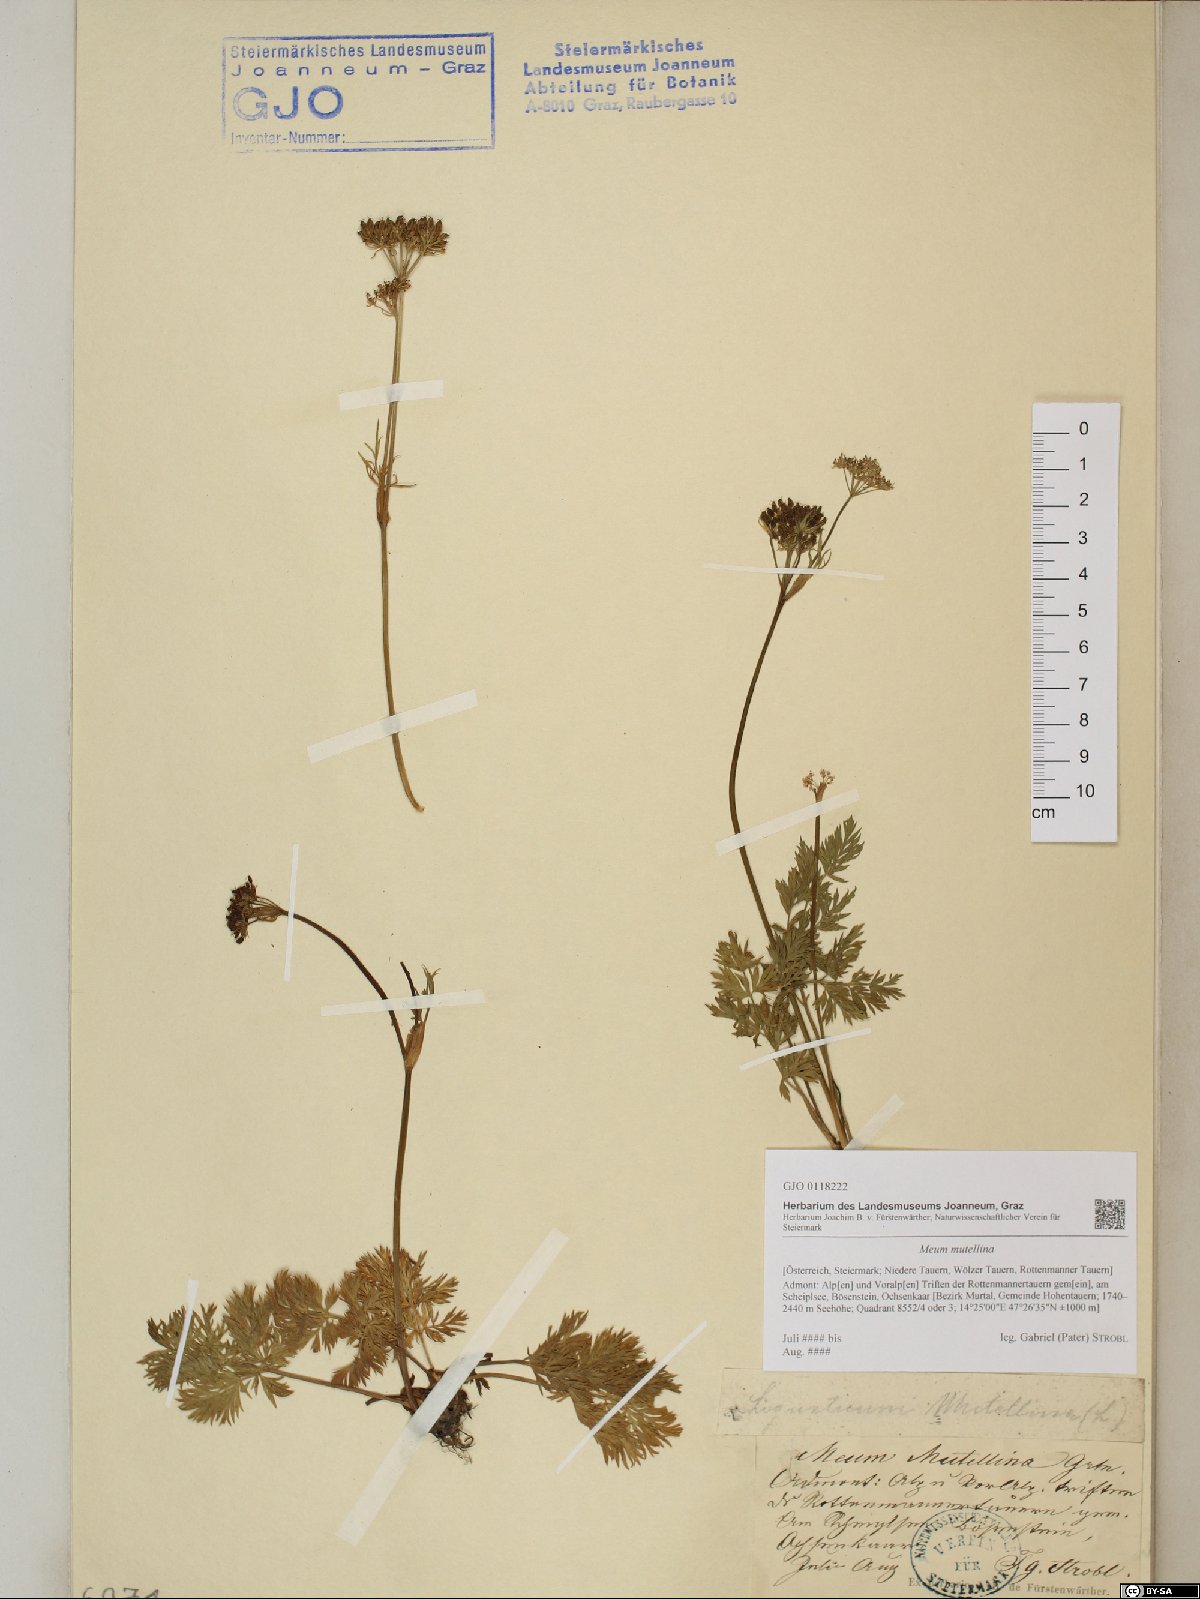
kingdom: Plantae
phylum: Tracheophyta
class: Magnoliopsida
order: Apiales
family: Apiaceae
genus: Mutellina
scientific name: Mutellina adonidifolia
